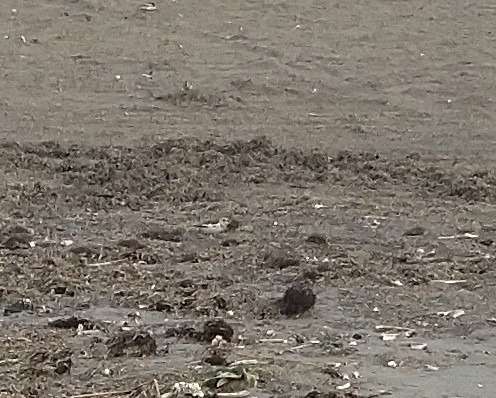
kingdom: Animalia
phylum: Chordata
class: Aves
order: Passeriformes
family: Calcariidae
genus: Plectrophenax
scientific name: Plectrophenax nivalis
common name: Snespurv
